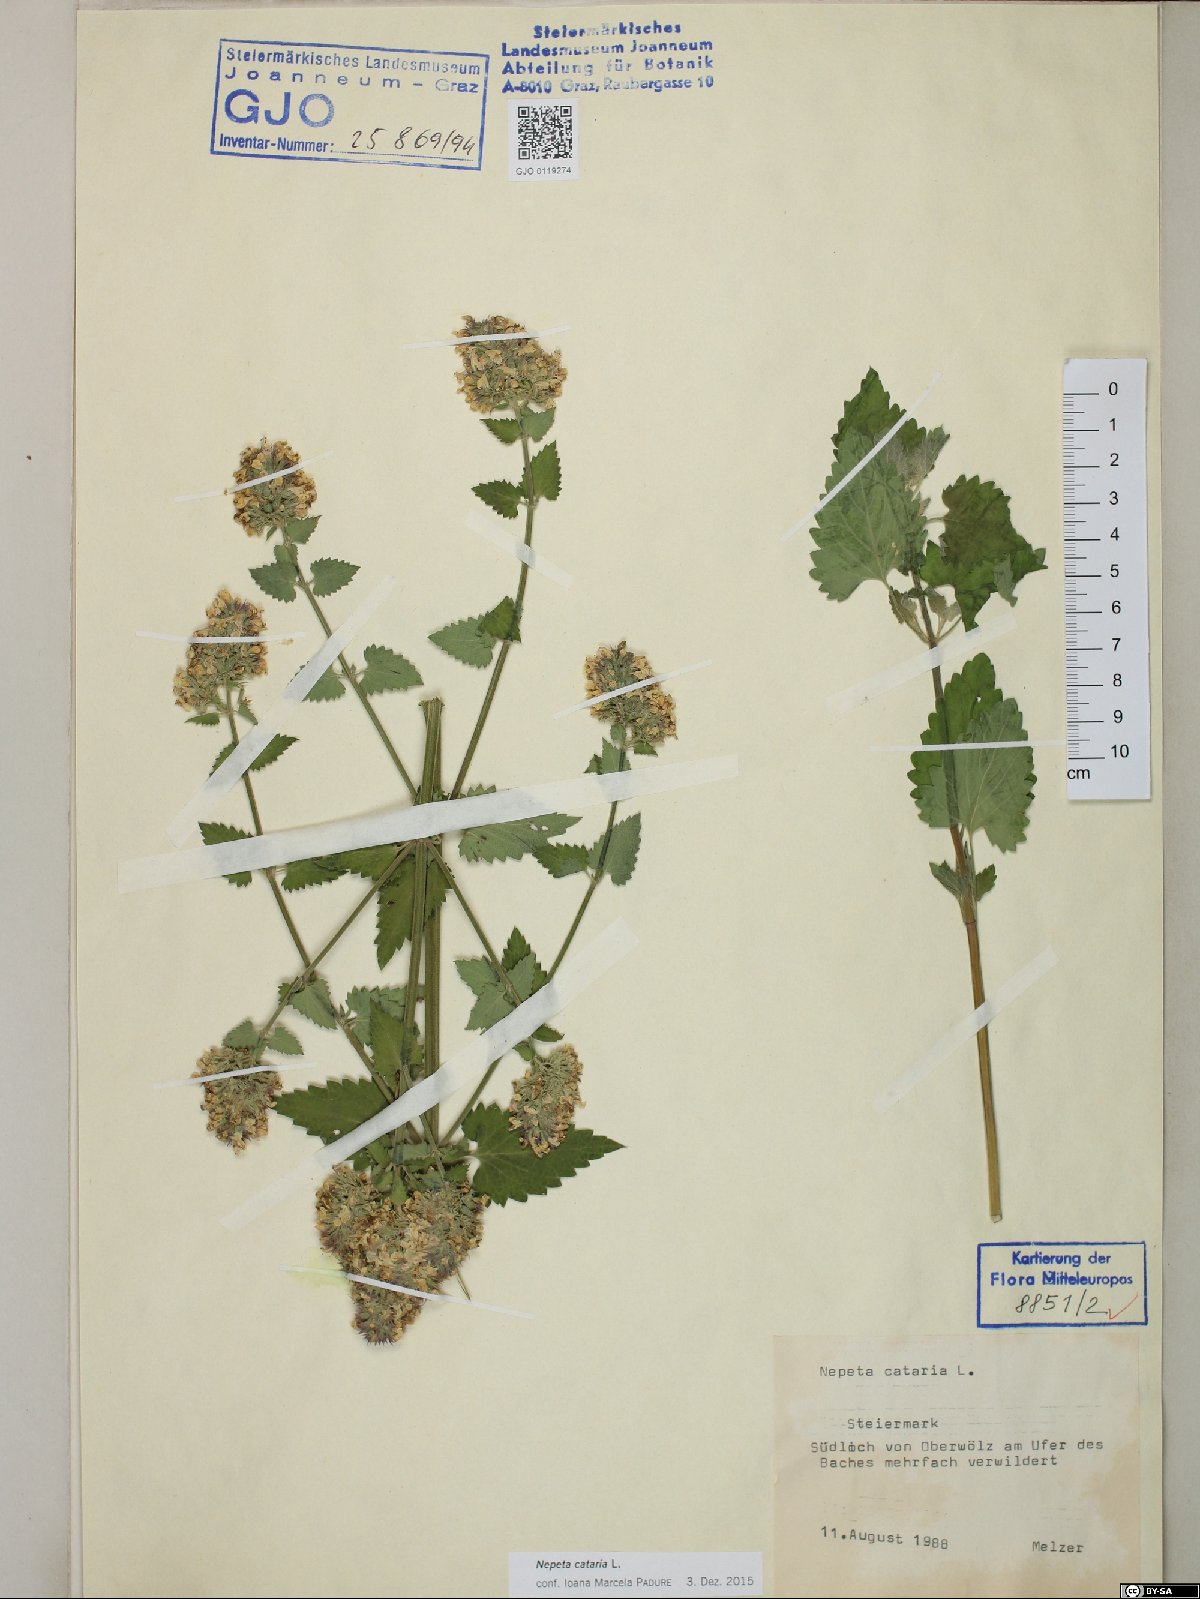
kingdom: Plantae
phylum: Tracheophyta
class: Magnoliopsida
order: Lamiales
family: Lamiaceae
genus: Nepeta
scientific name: Nepeta cataria
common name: Catnip
